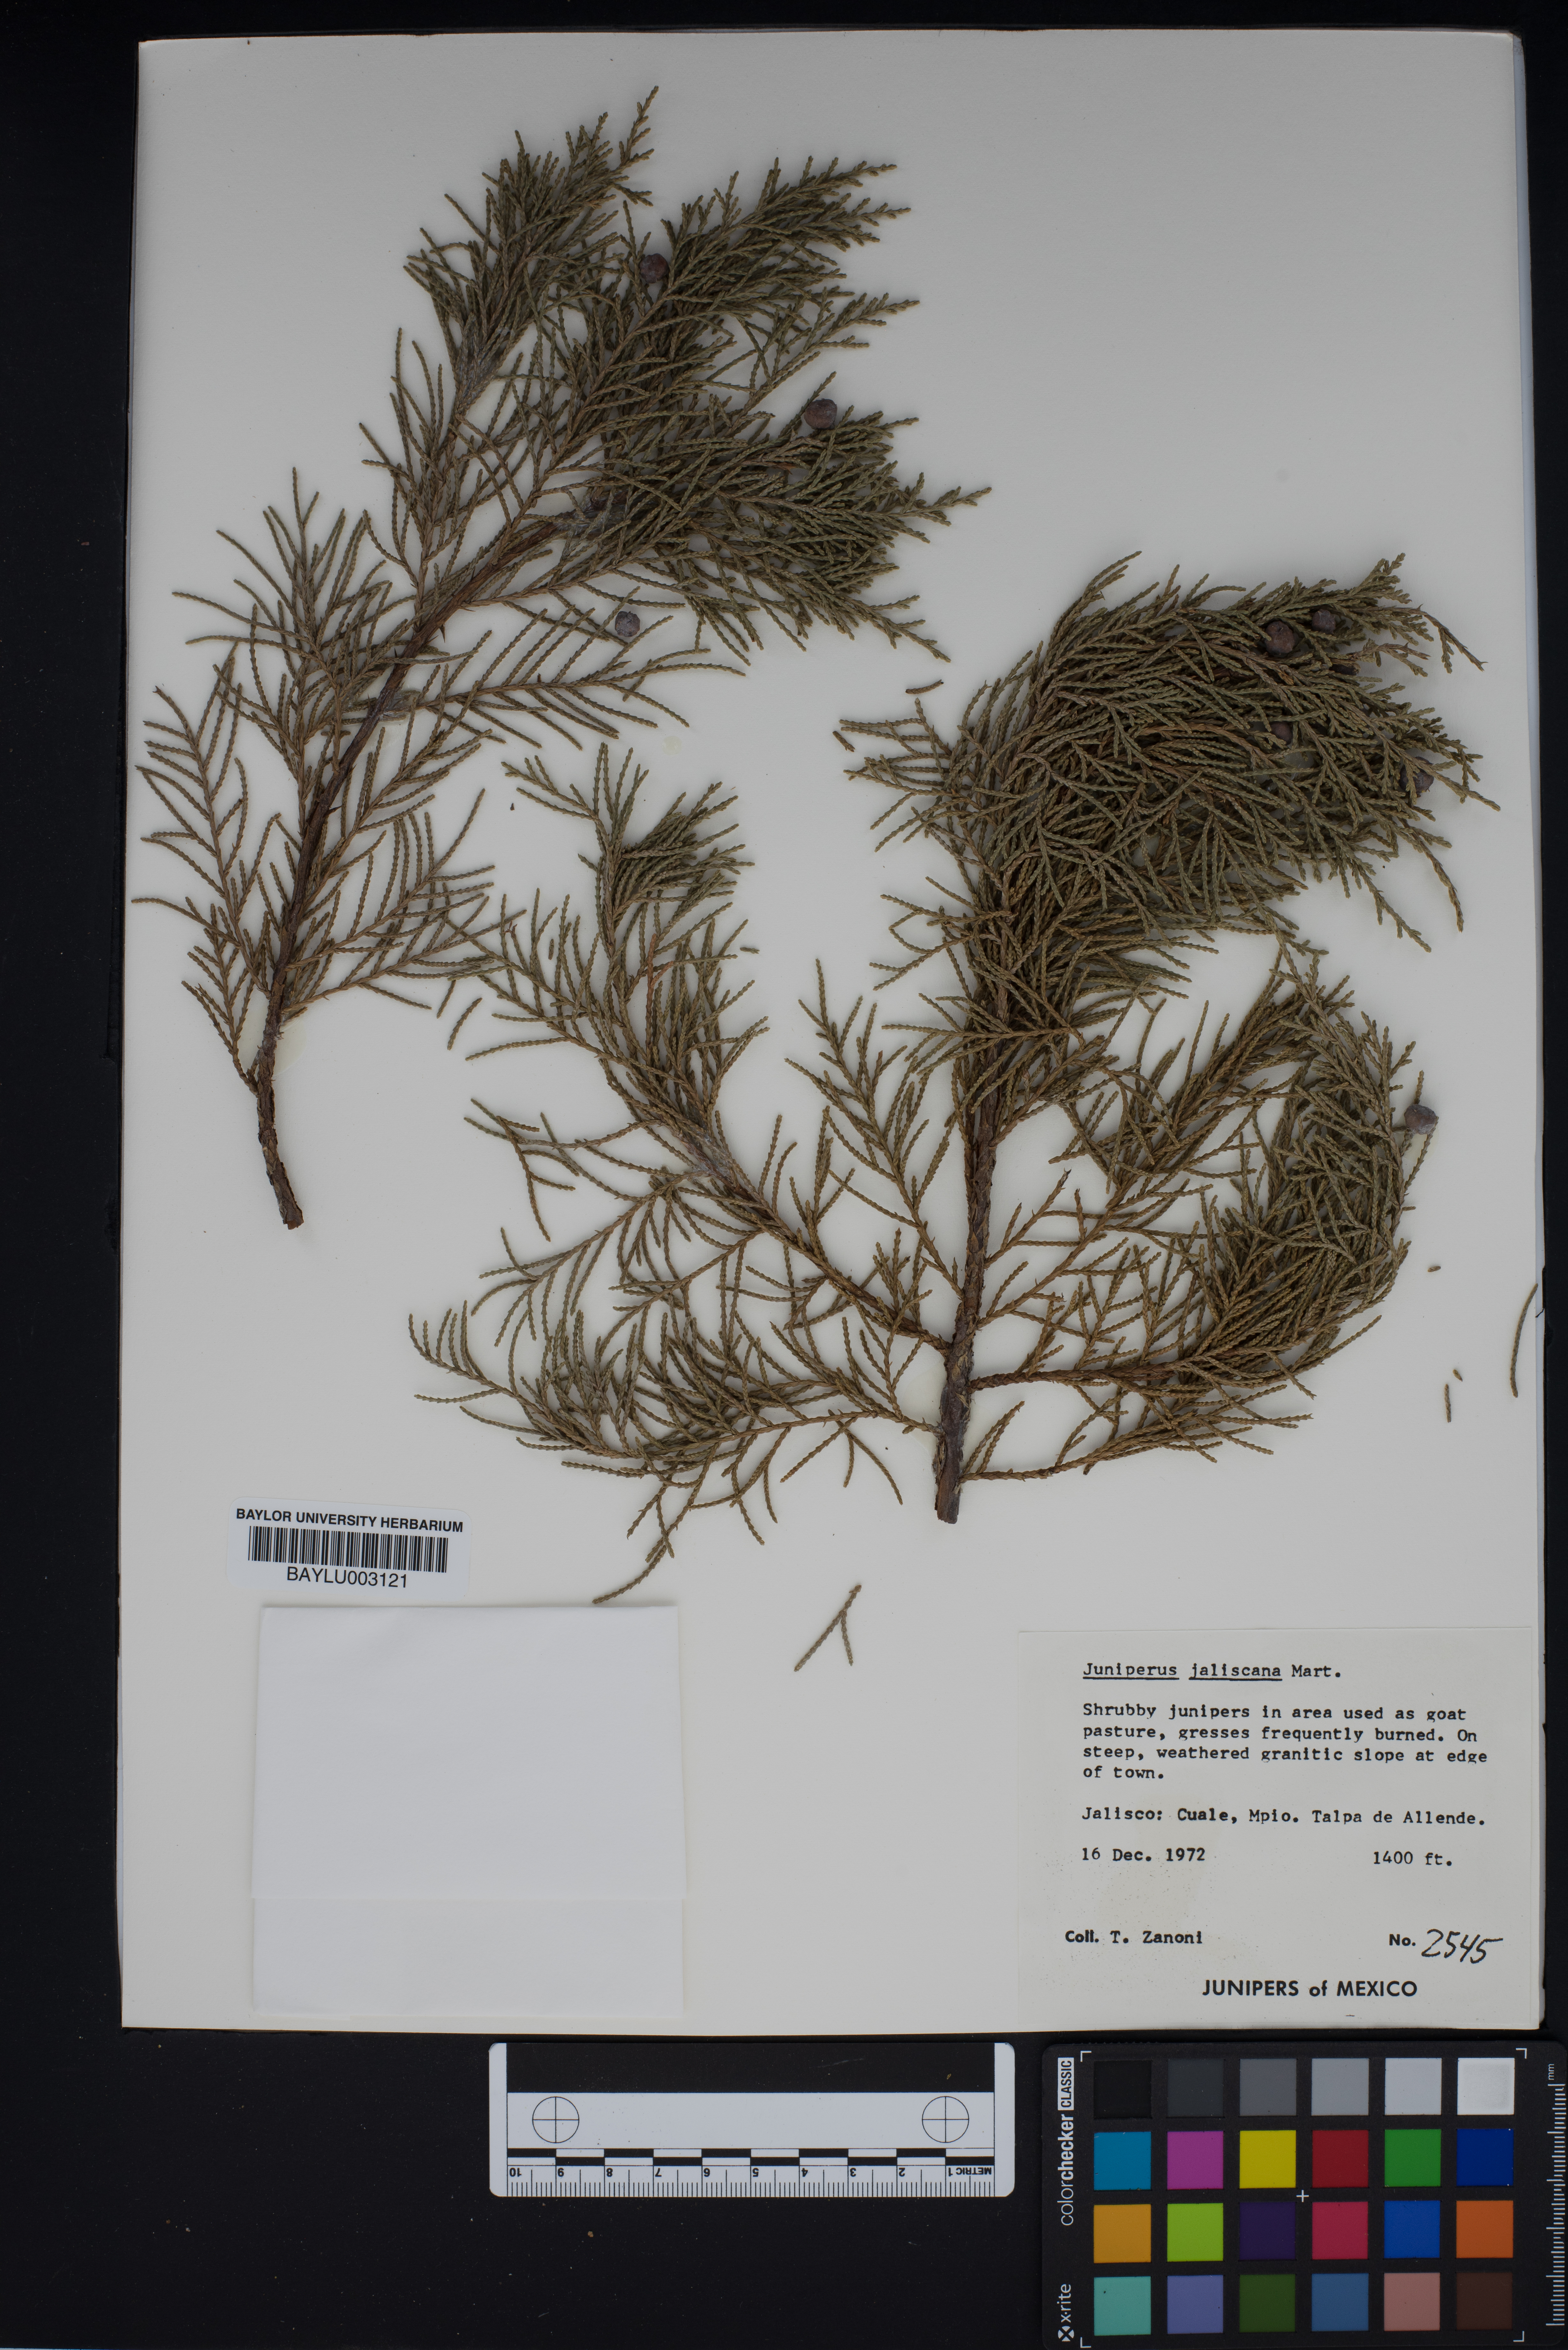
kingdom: Plantae
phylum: Tracheophyta
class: Pinopsida
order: Pinales
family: Cupressaceae
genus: Juniperus
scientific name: Juniperus jaliscana
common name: Jalisco juniper
